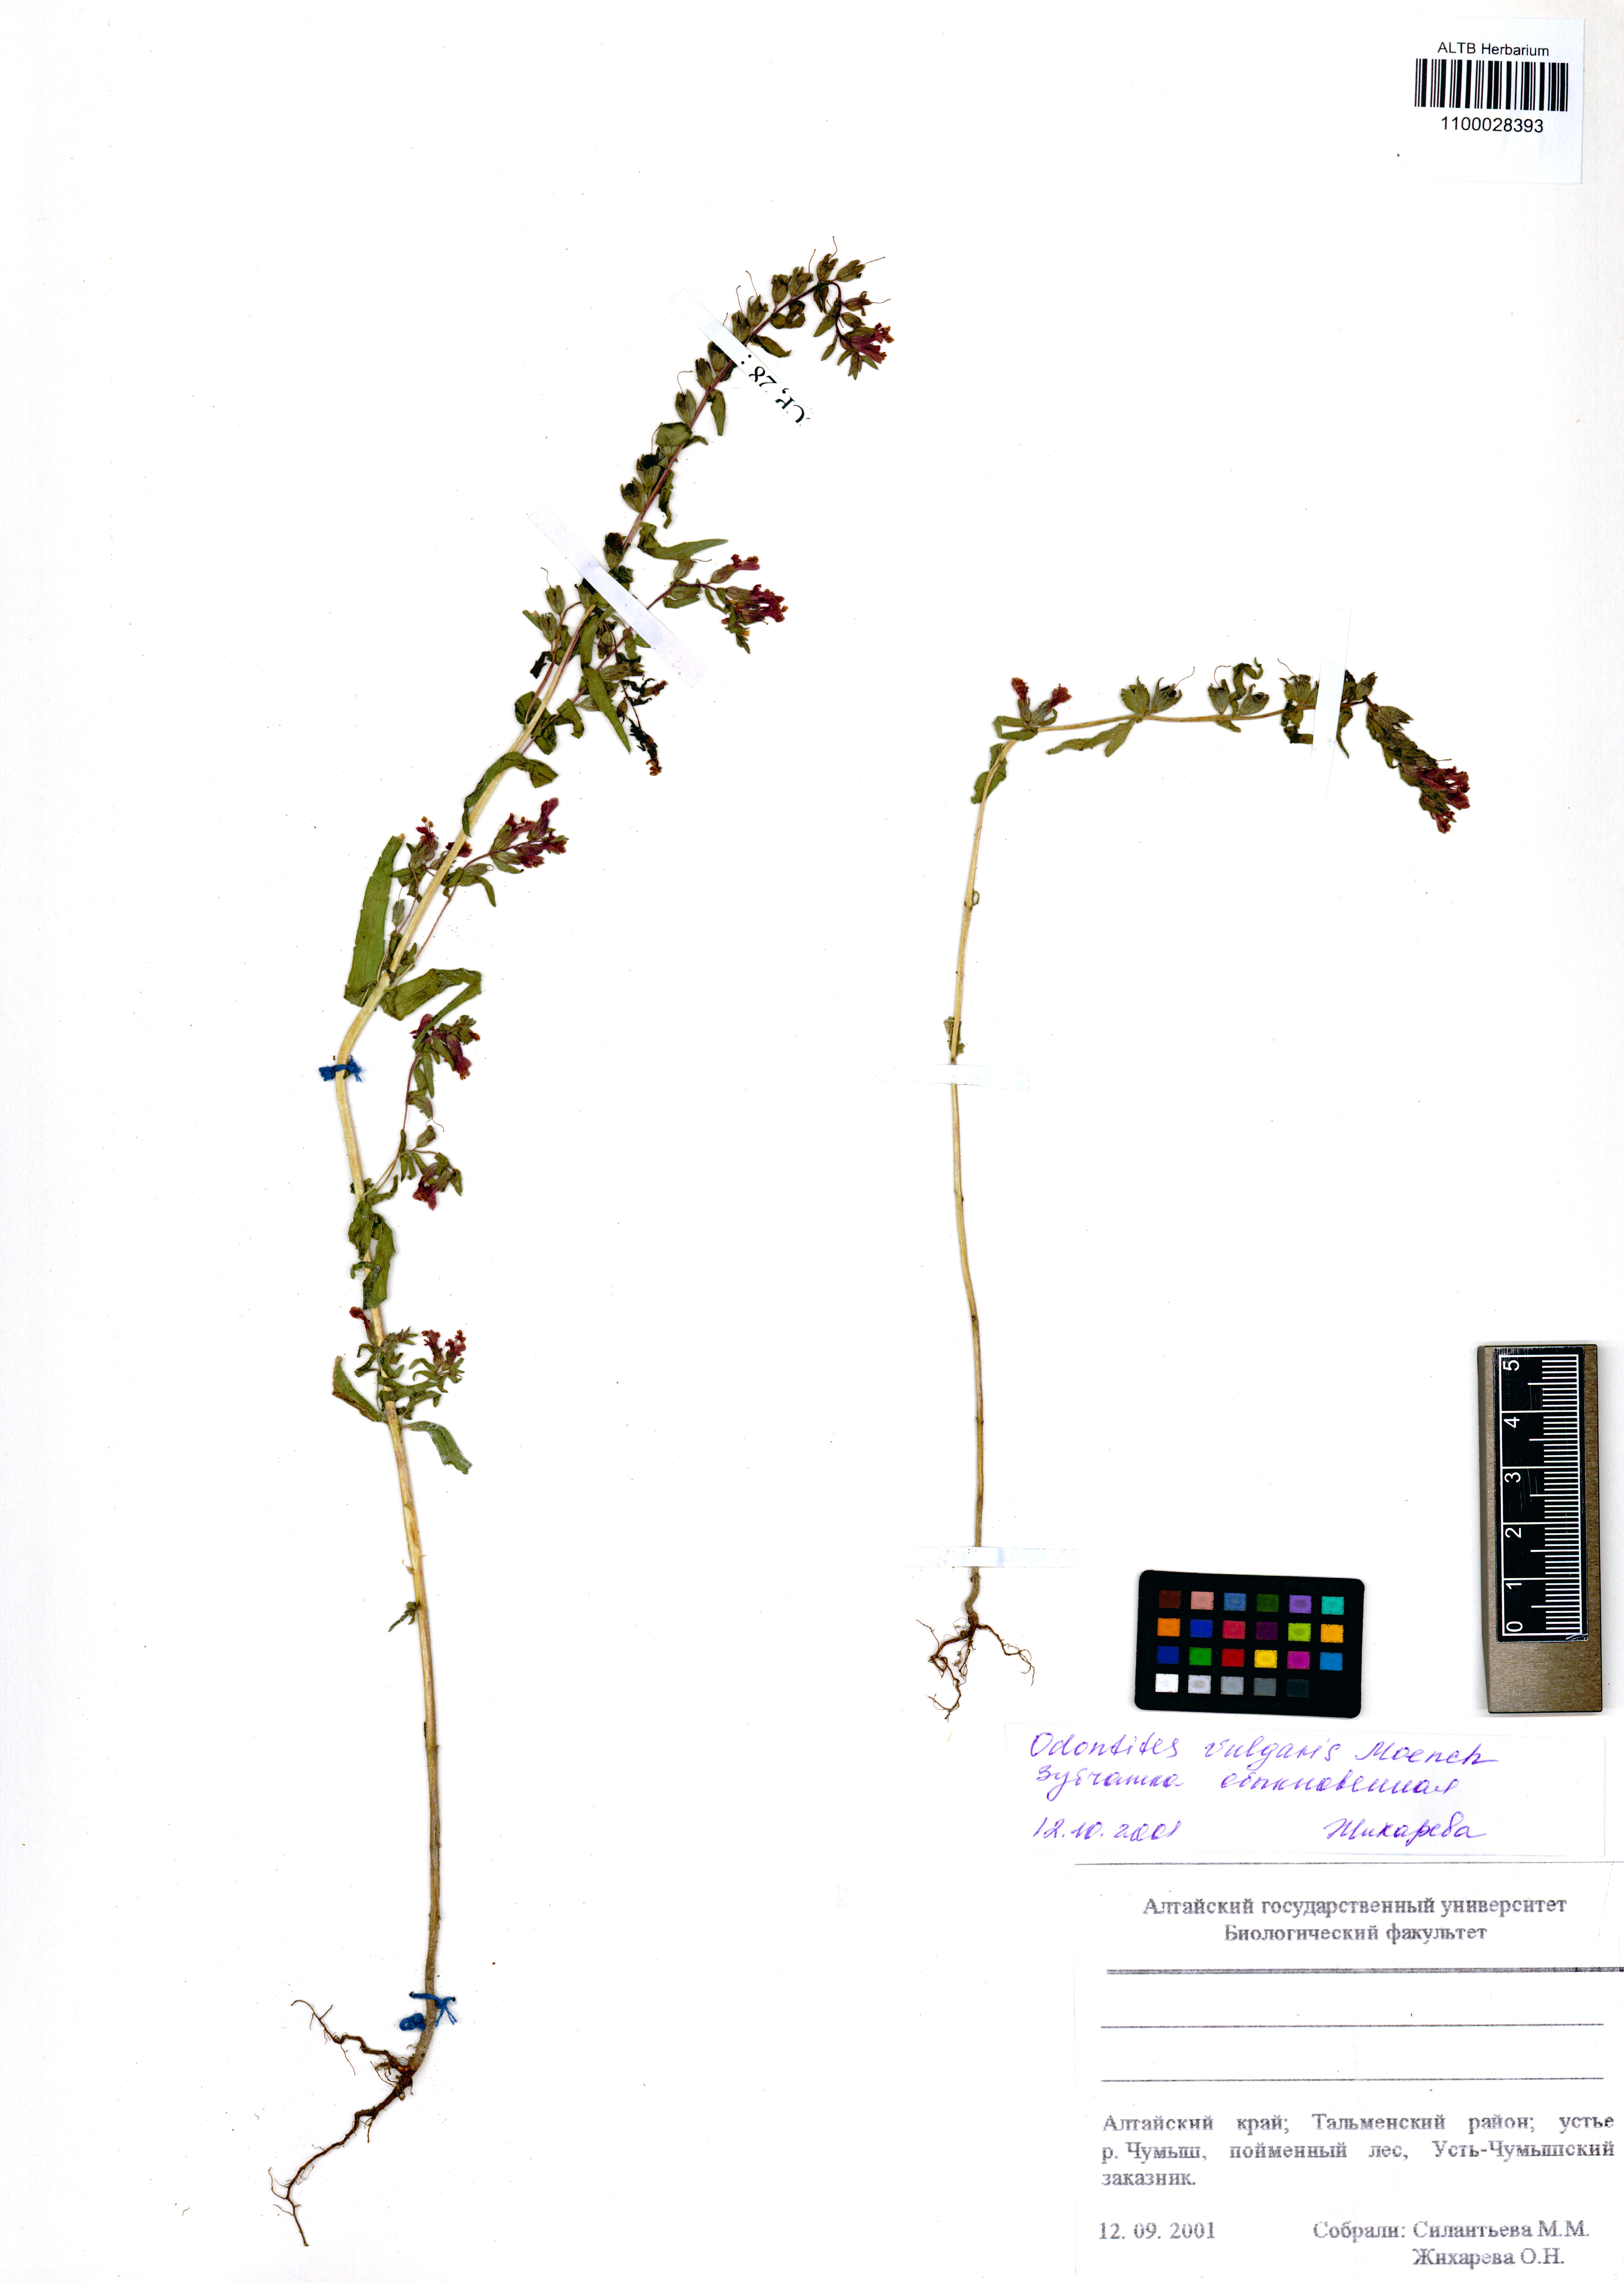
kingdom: Plantae
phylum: Tracheophyta
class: Magnoliopsida
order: Lamiales
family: Orobanchaceae
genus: Odontites
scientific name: Odontites vulgaris
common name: Broomrape
